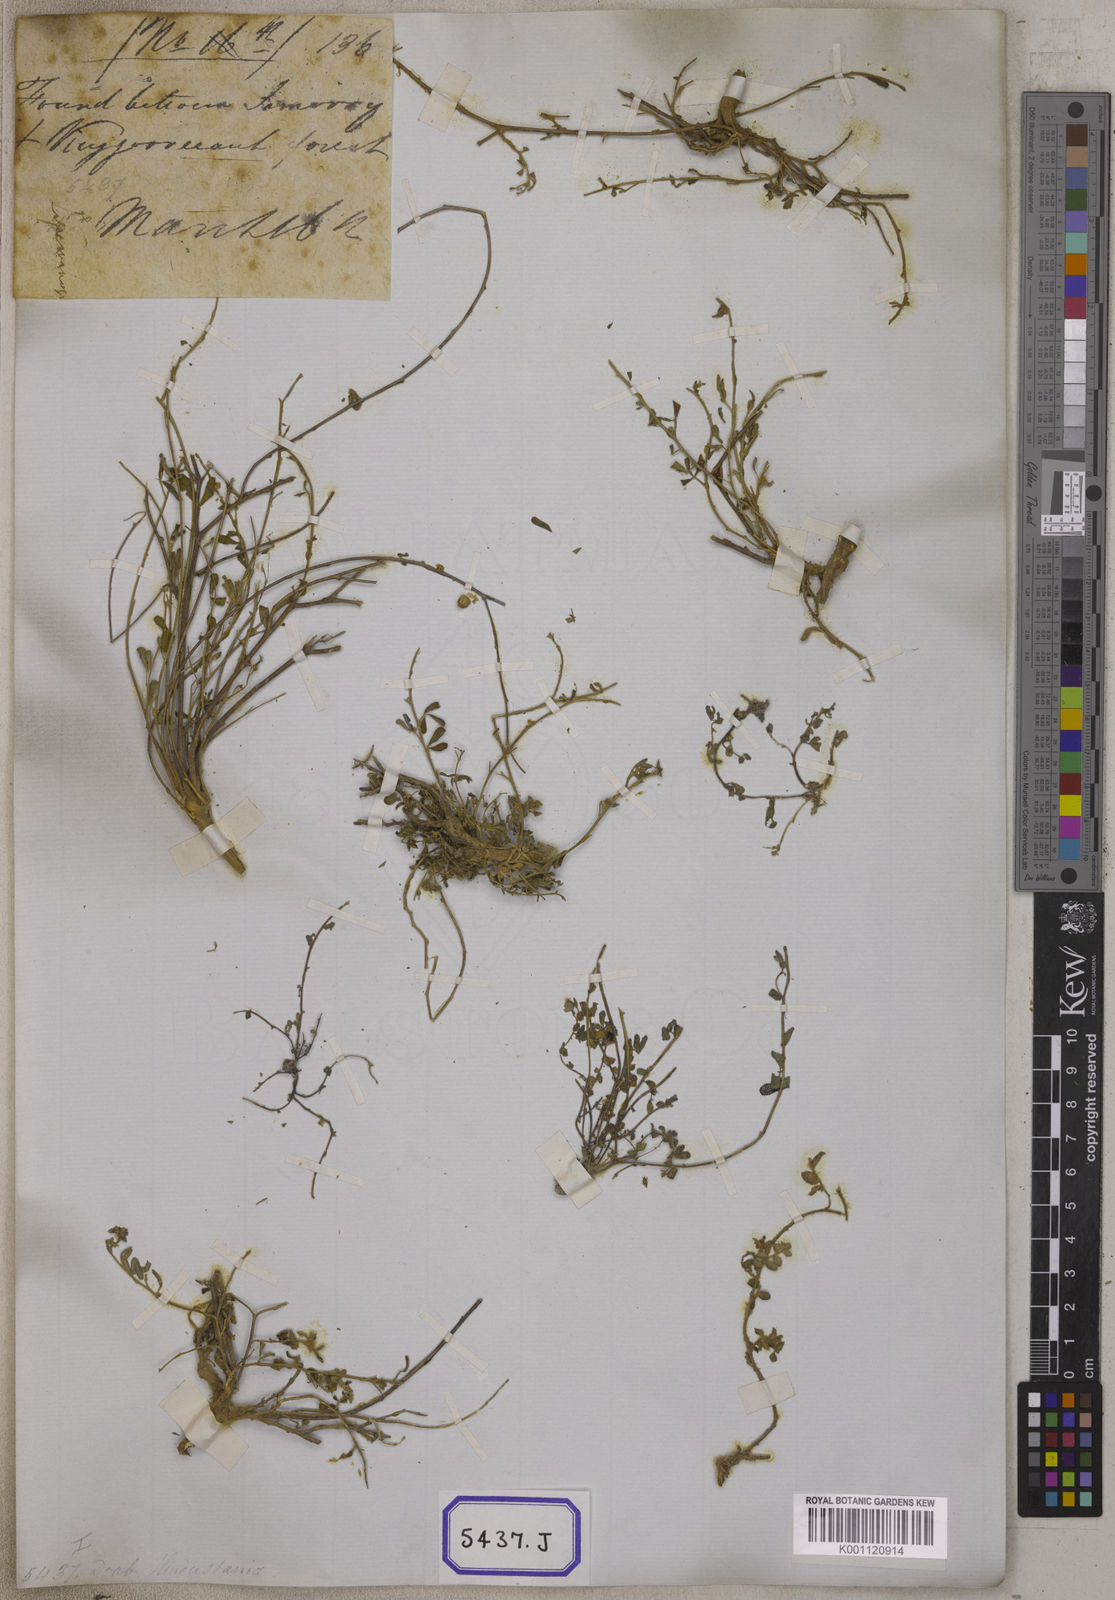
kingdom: Plantae
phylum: Tracheophyta
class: Magnoliopsida
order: Fabales
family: Fabaceae
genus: Crotalaria
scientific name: Crotalaria
